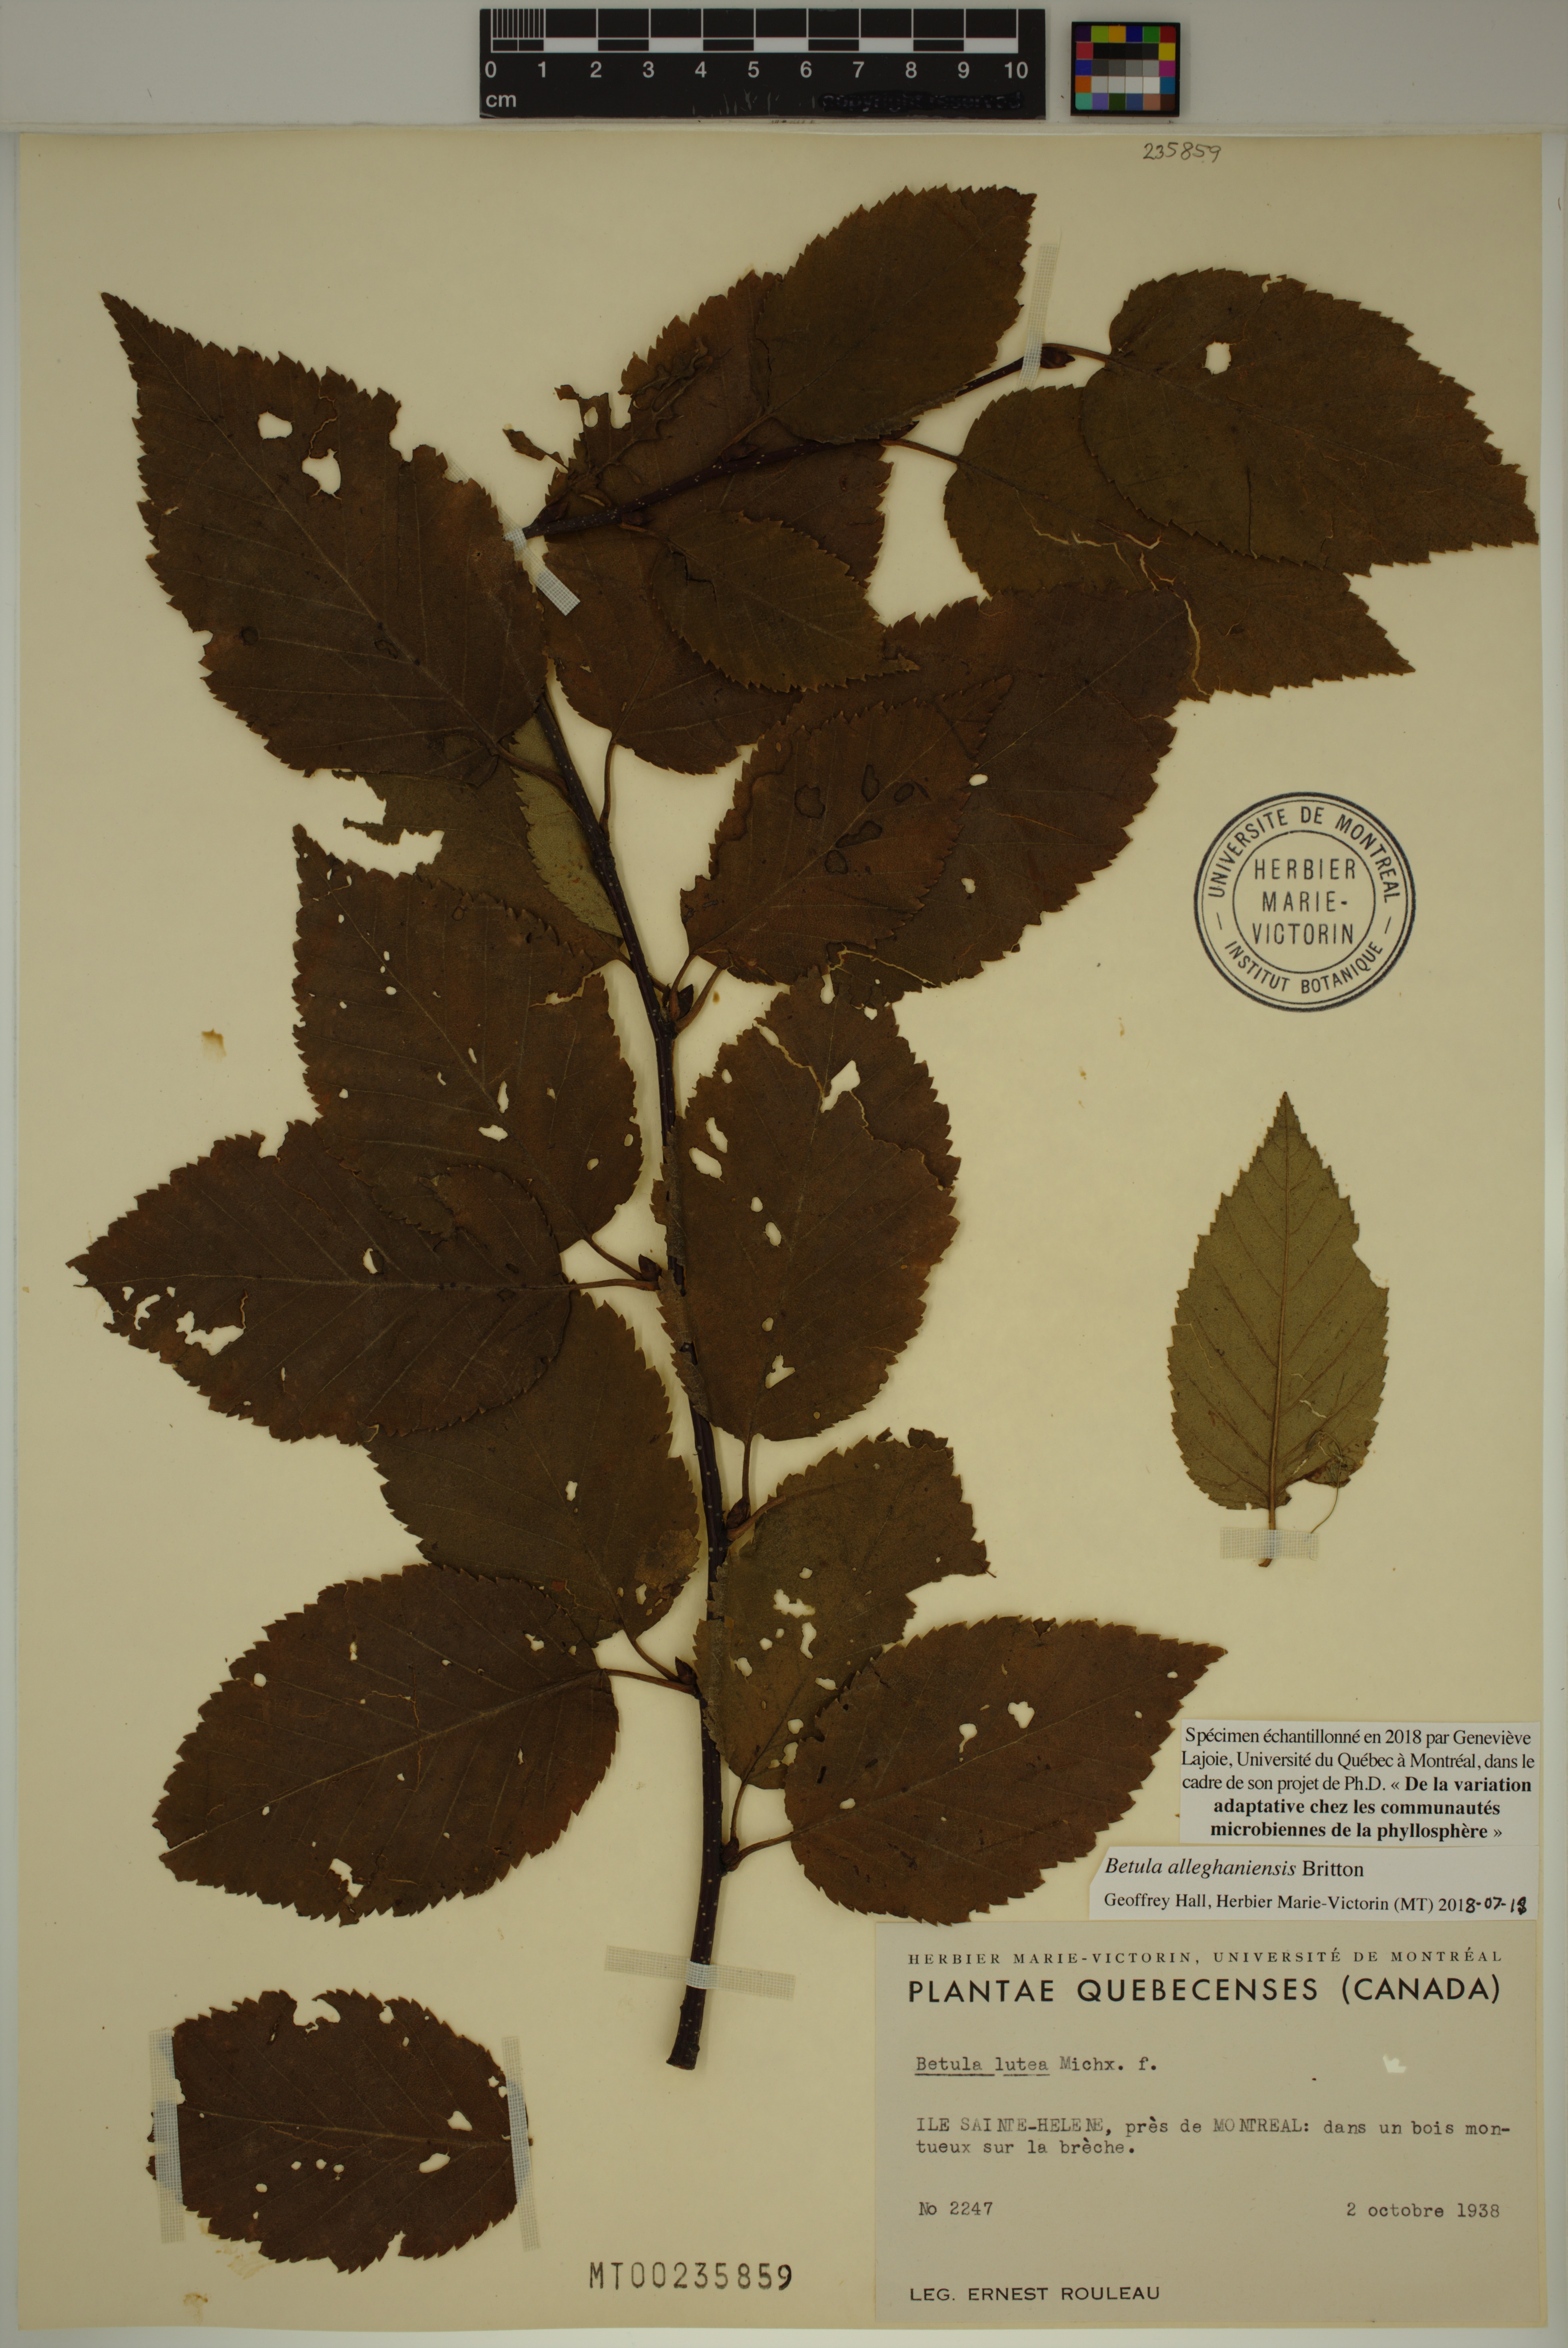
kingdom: Plantae
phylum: Tracheophyta
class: Magnoliopsida
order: Fagales
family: Betulaceae
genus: Betula
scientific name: Betula alleghaniensis
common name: Yellow birch
